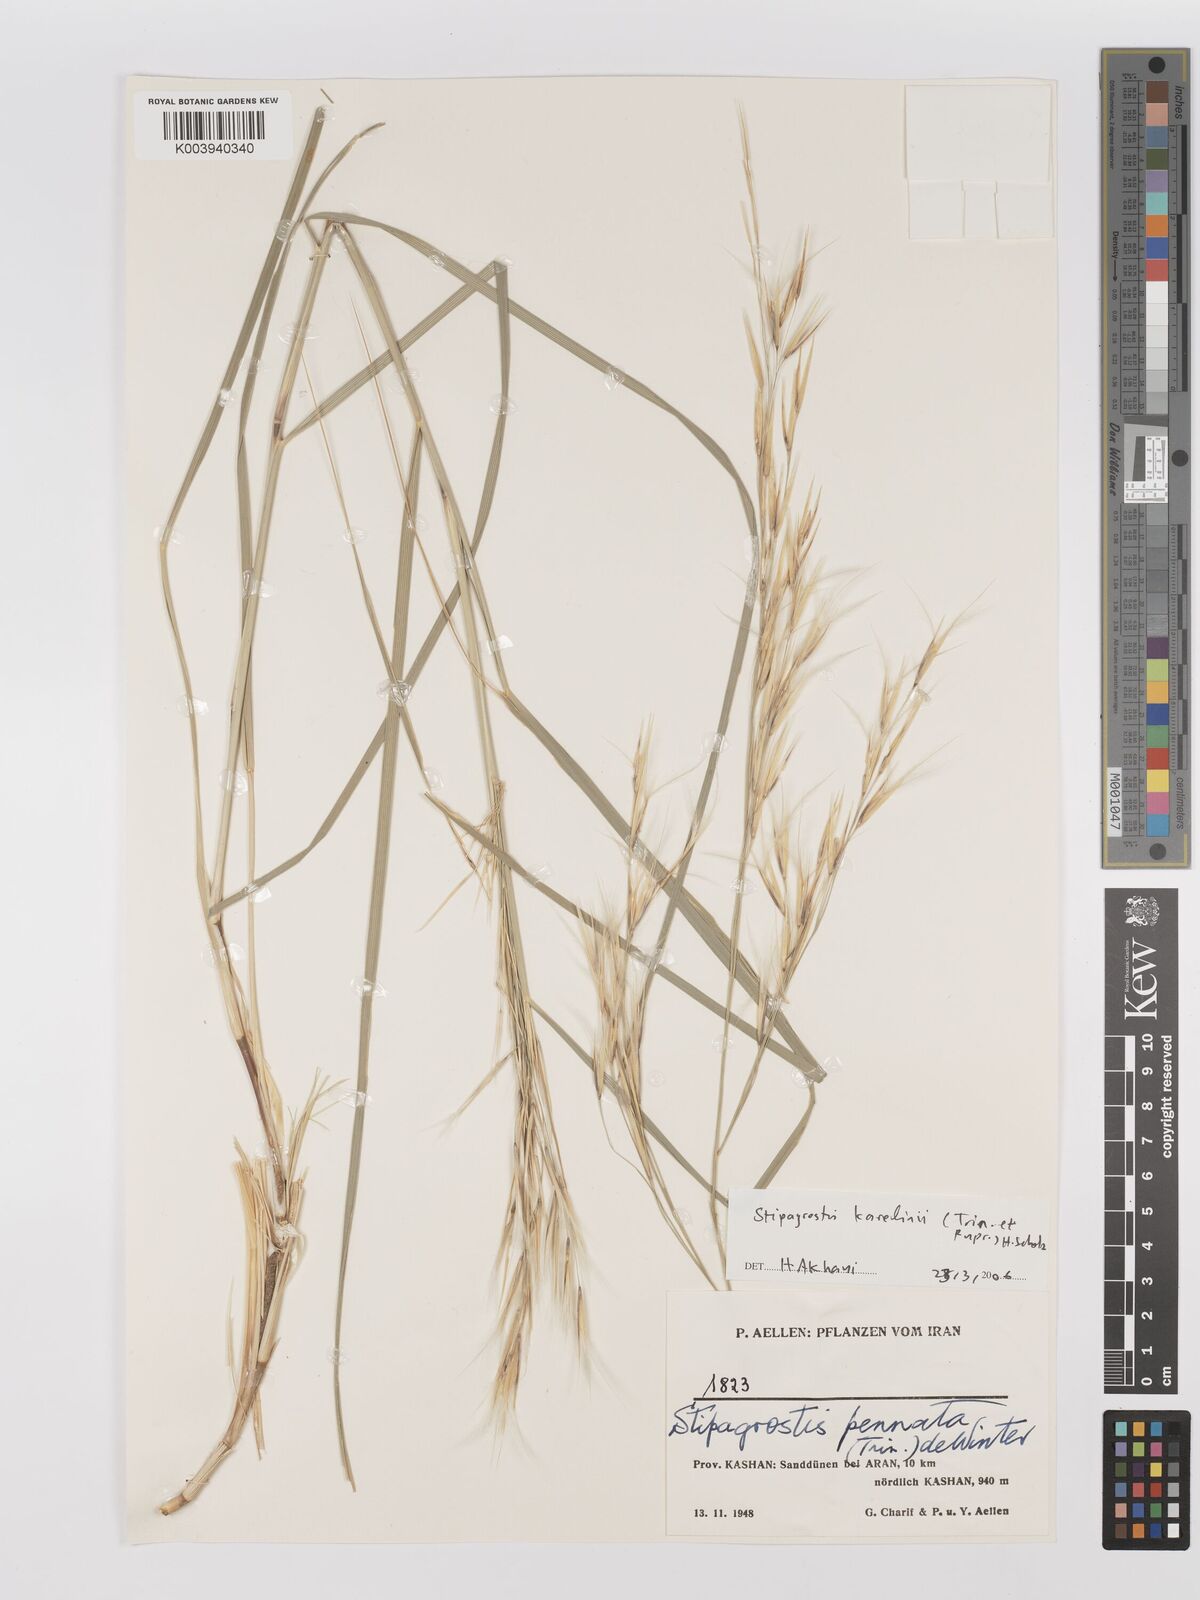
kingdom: Plantae
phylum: Tracheophyta
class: Liliopsida
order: Poales
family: Poaceae
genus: Stipagrostis
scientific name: Stipagrostis karelinii
